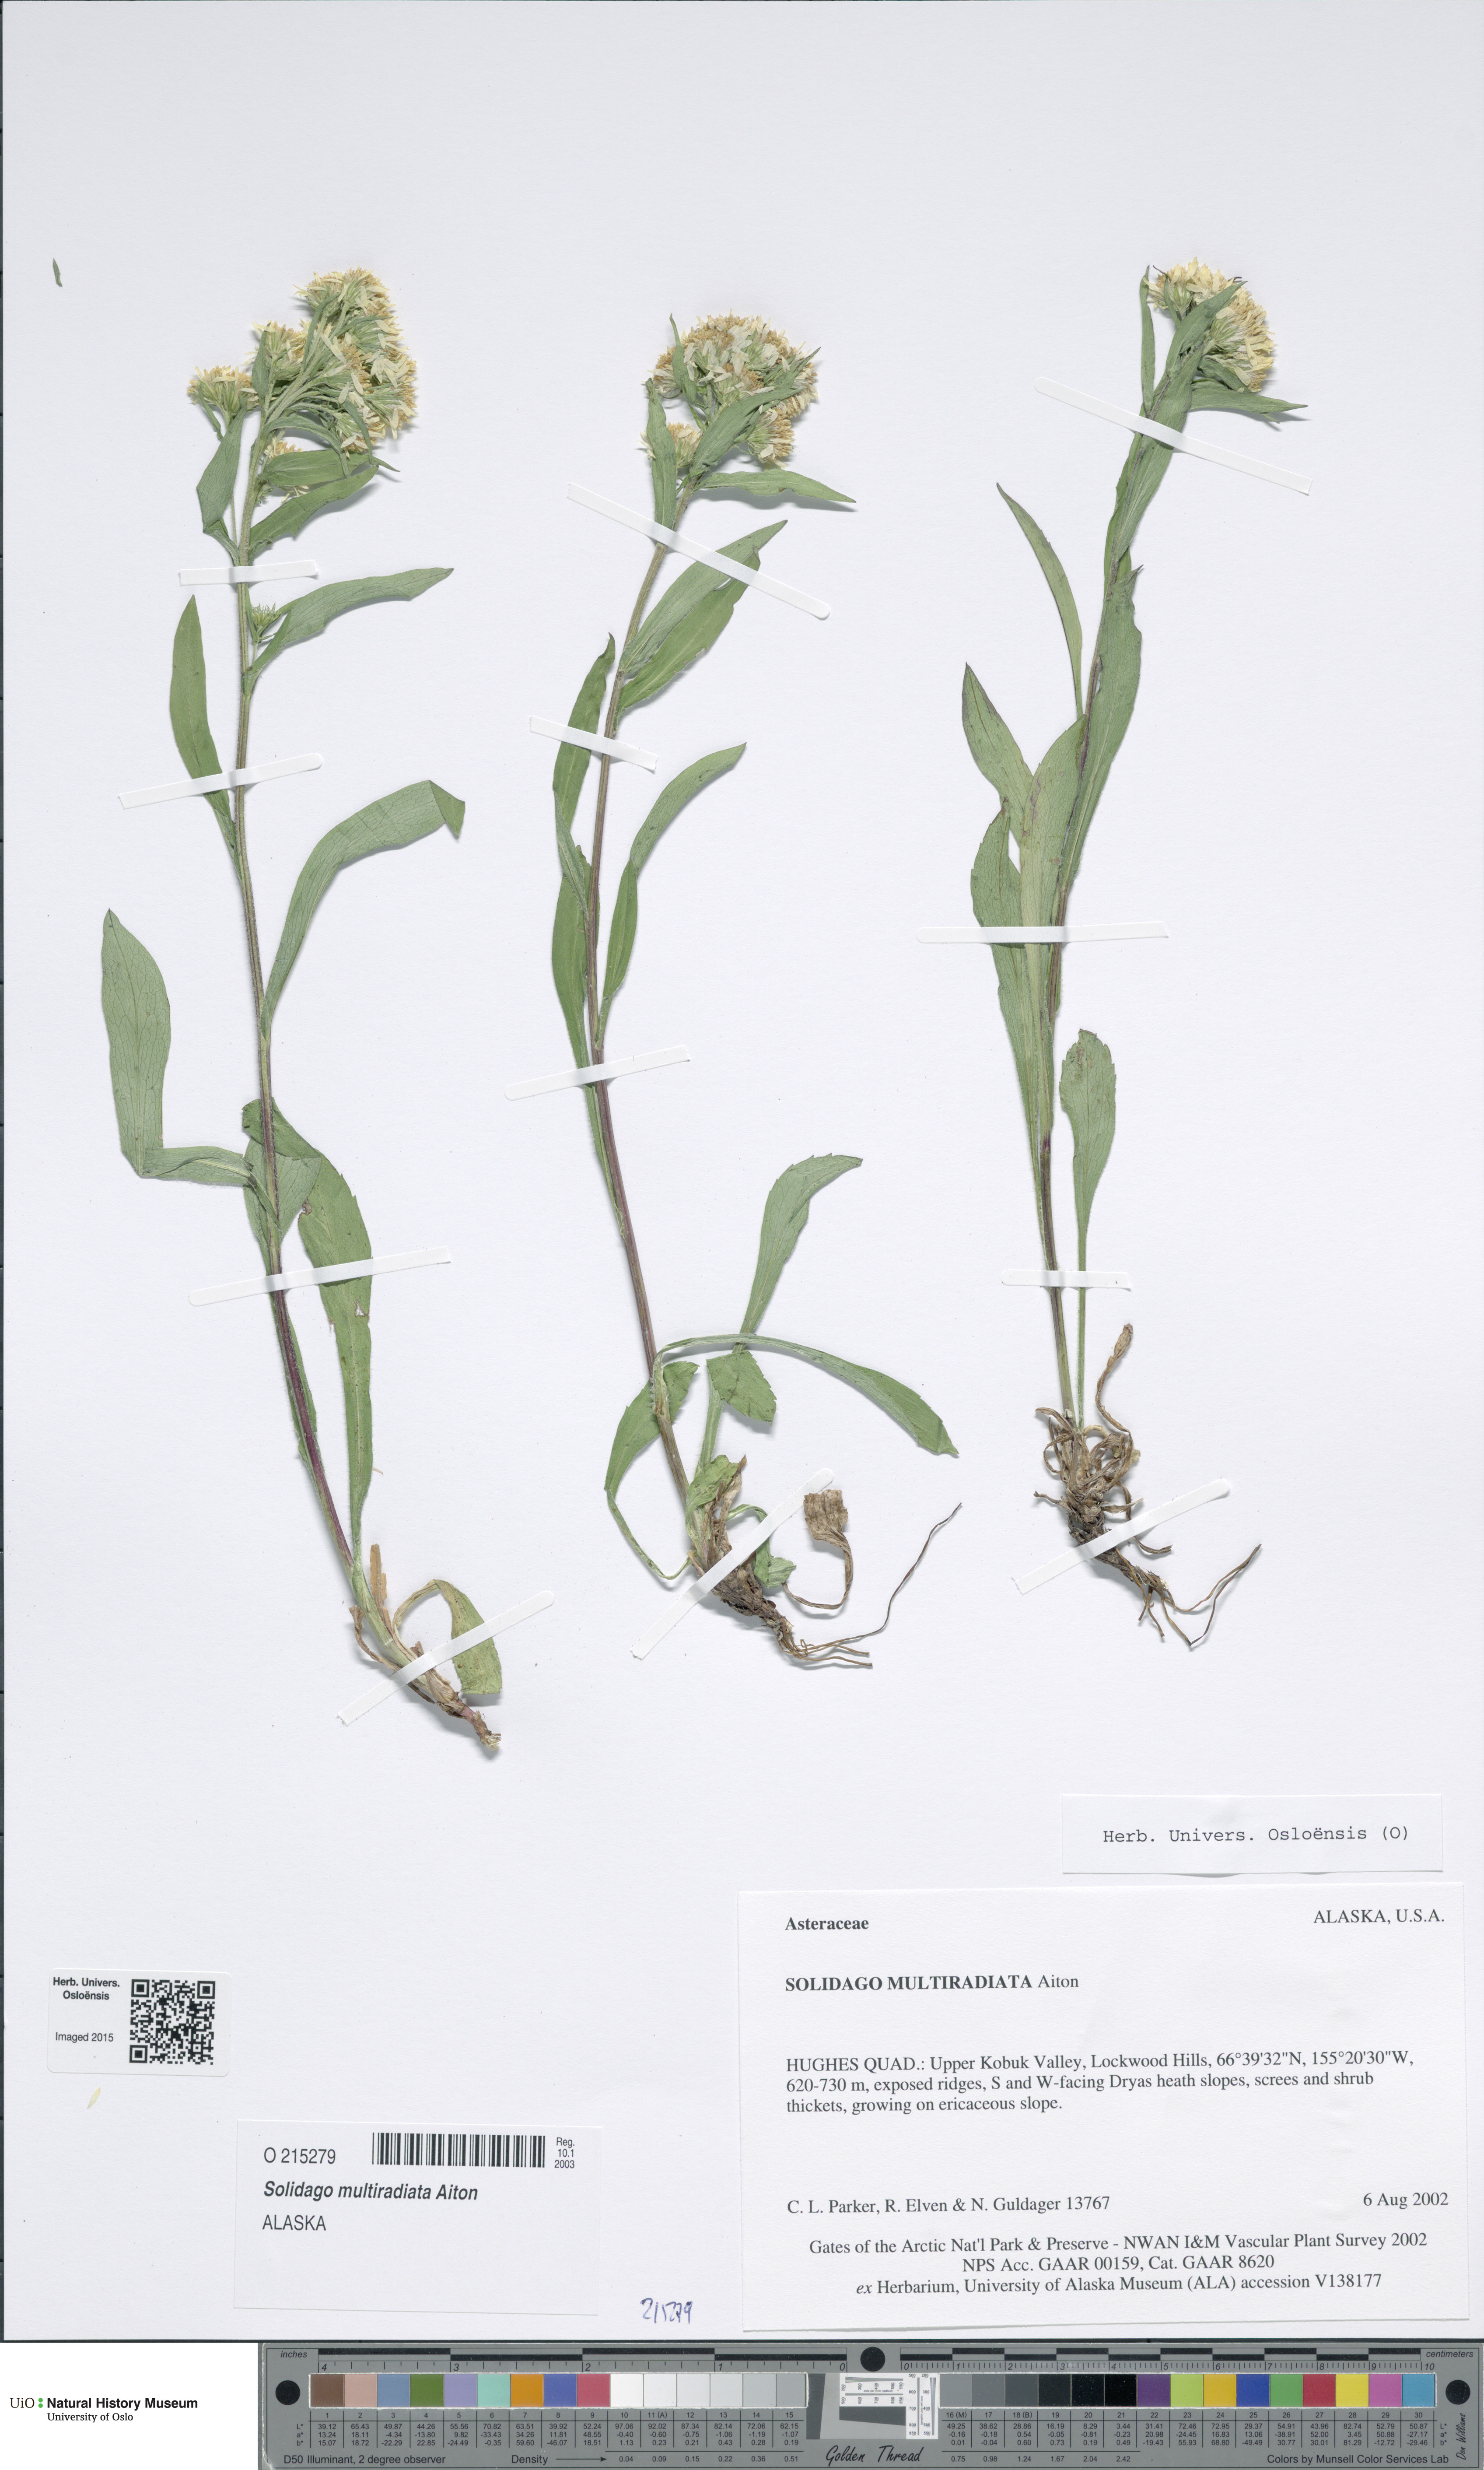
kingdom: Plantae
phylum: Tracheophyta
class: Magnoliopsida
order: Asterales
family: Asteraceae
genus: Solidago
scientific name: Solidago multiradiata
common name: Northern goldenrod
